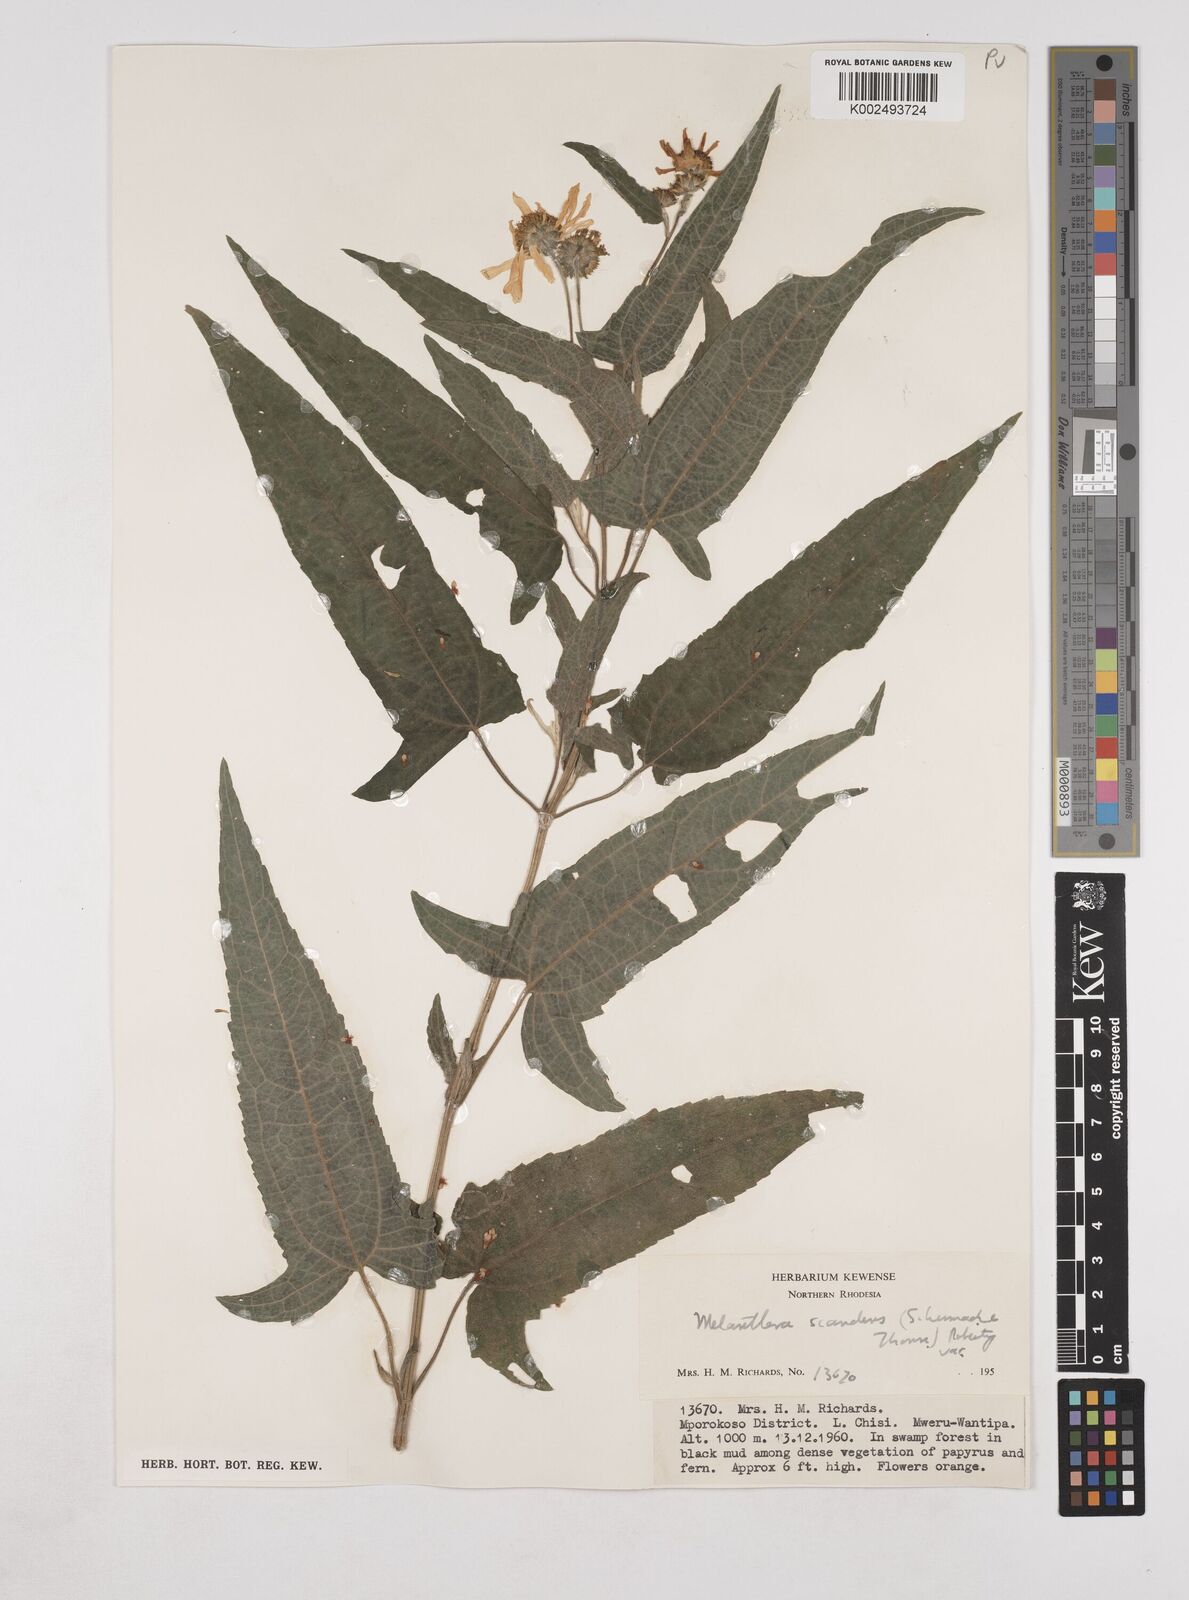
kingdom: Plantae
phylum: Tracheophyta
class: Magnoliopsida
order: Asterales
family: Asteraceae
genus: Lipotriche
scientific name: Lipotriche scandens
